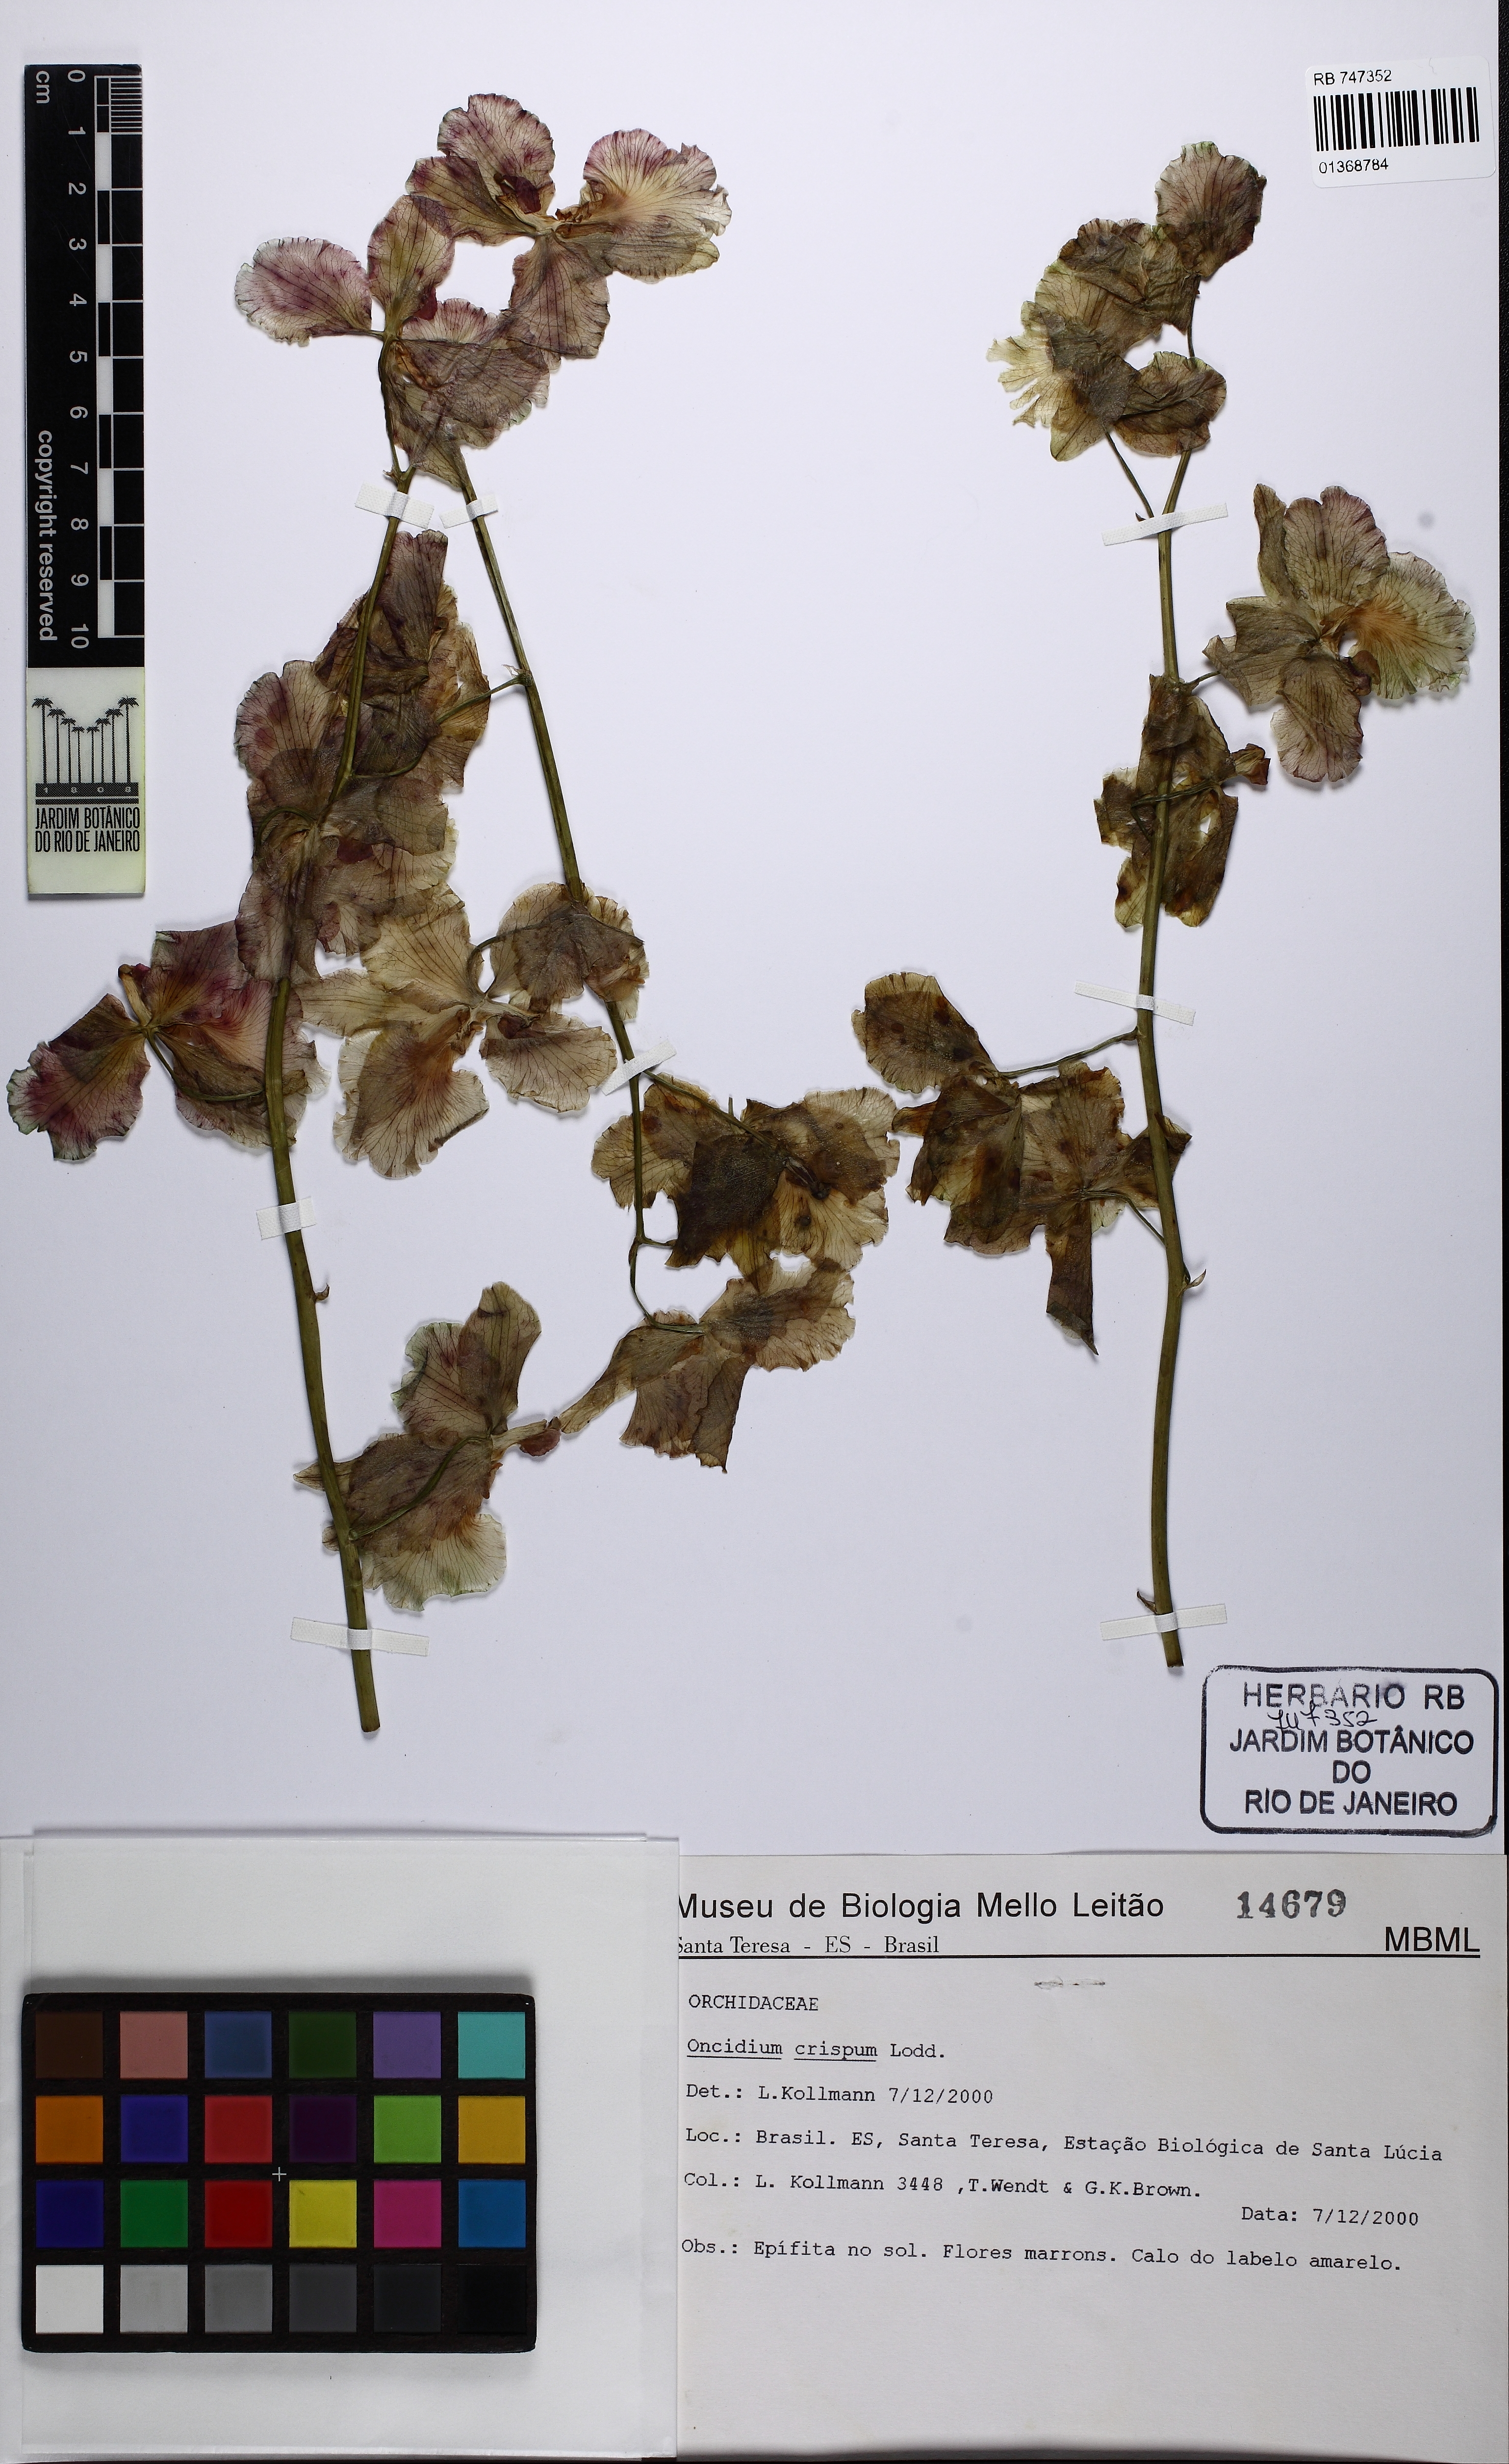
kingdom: Plantae
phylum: Tracheophyta
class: Liliopsida
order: Asparagales
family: Orchidaceae
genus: Gomesa
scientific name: Gomesa imperatoris-maximiliani
